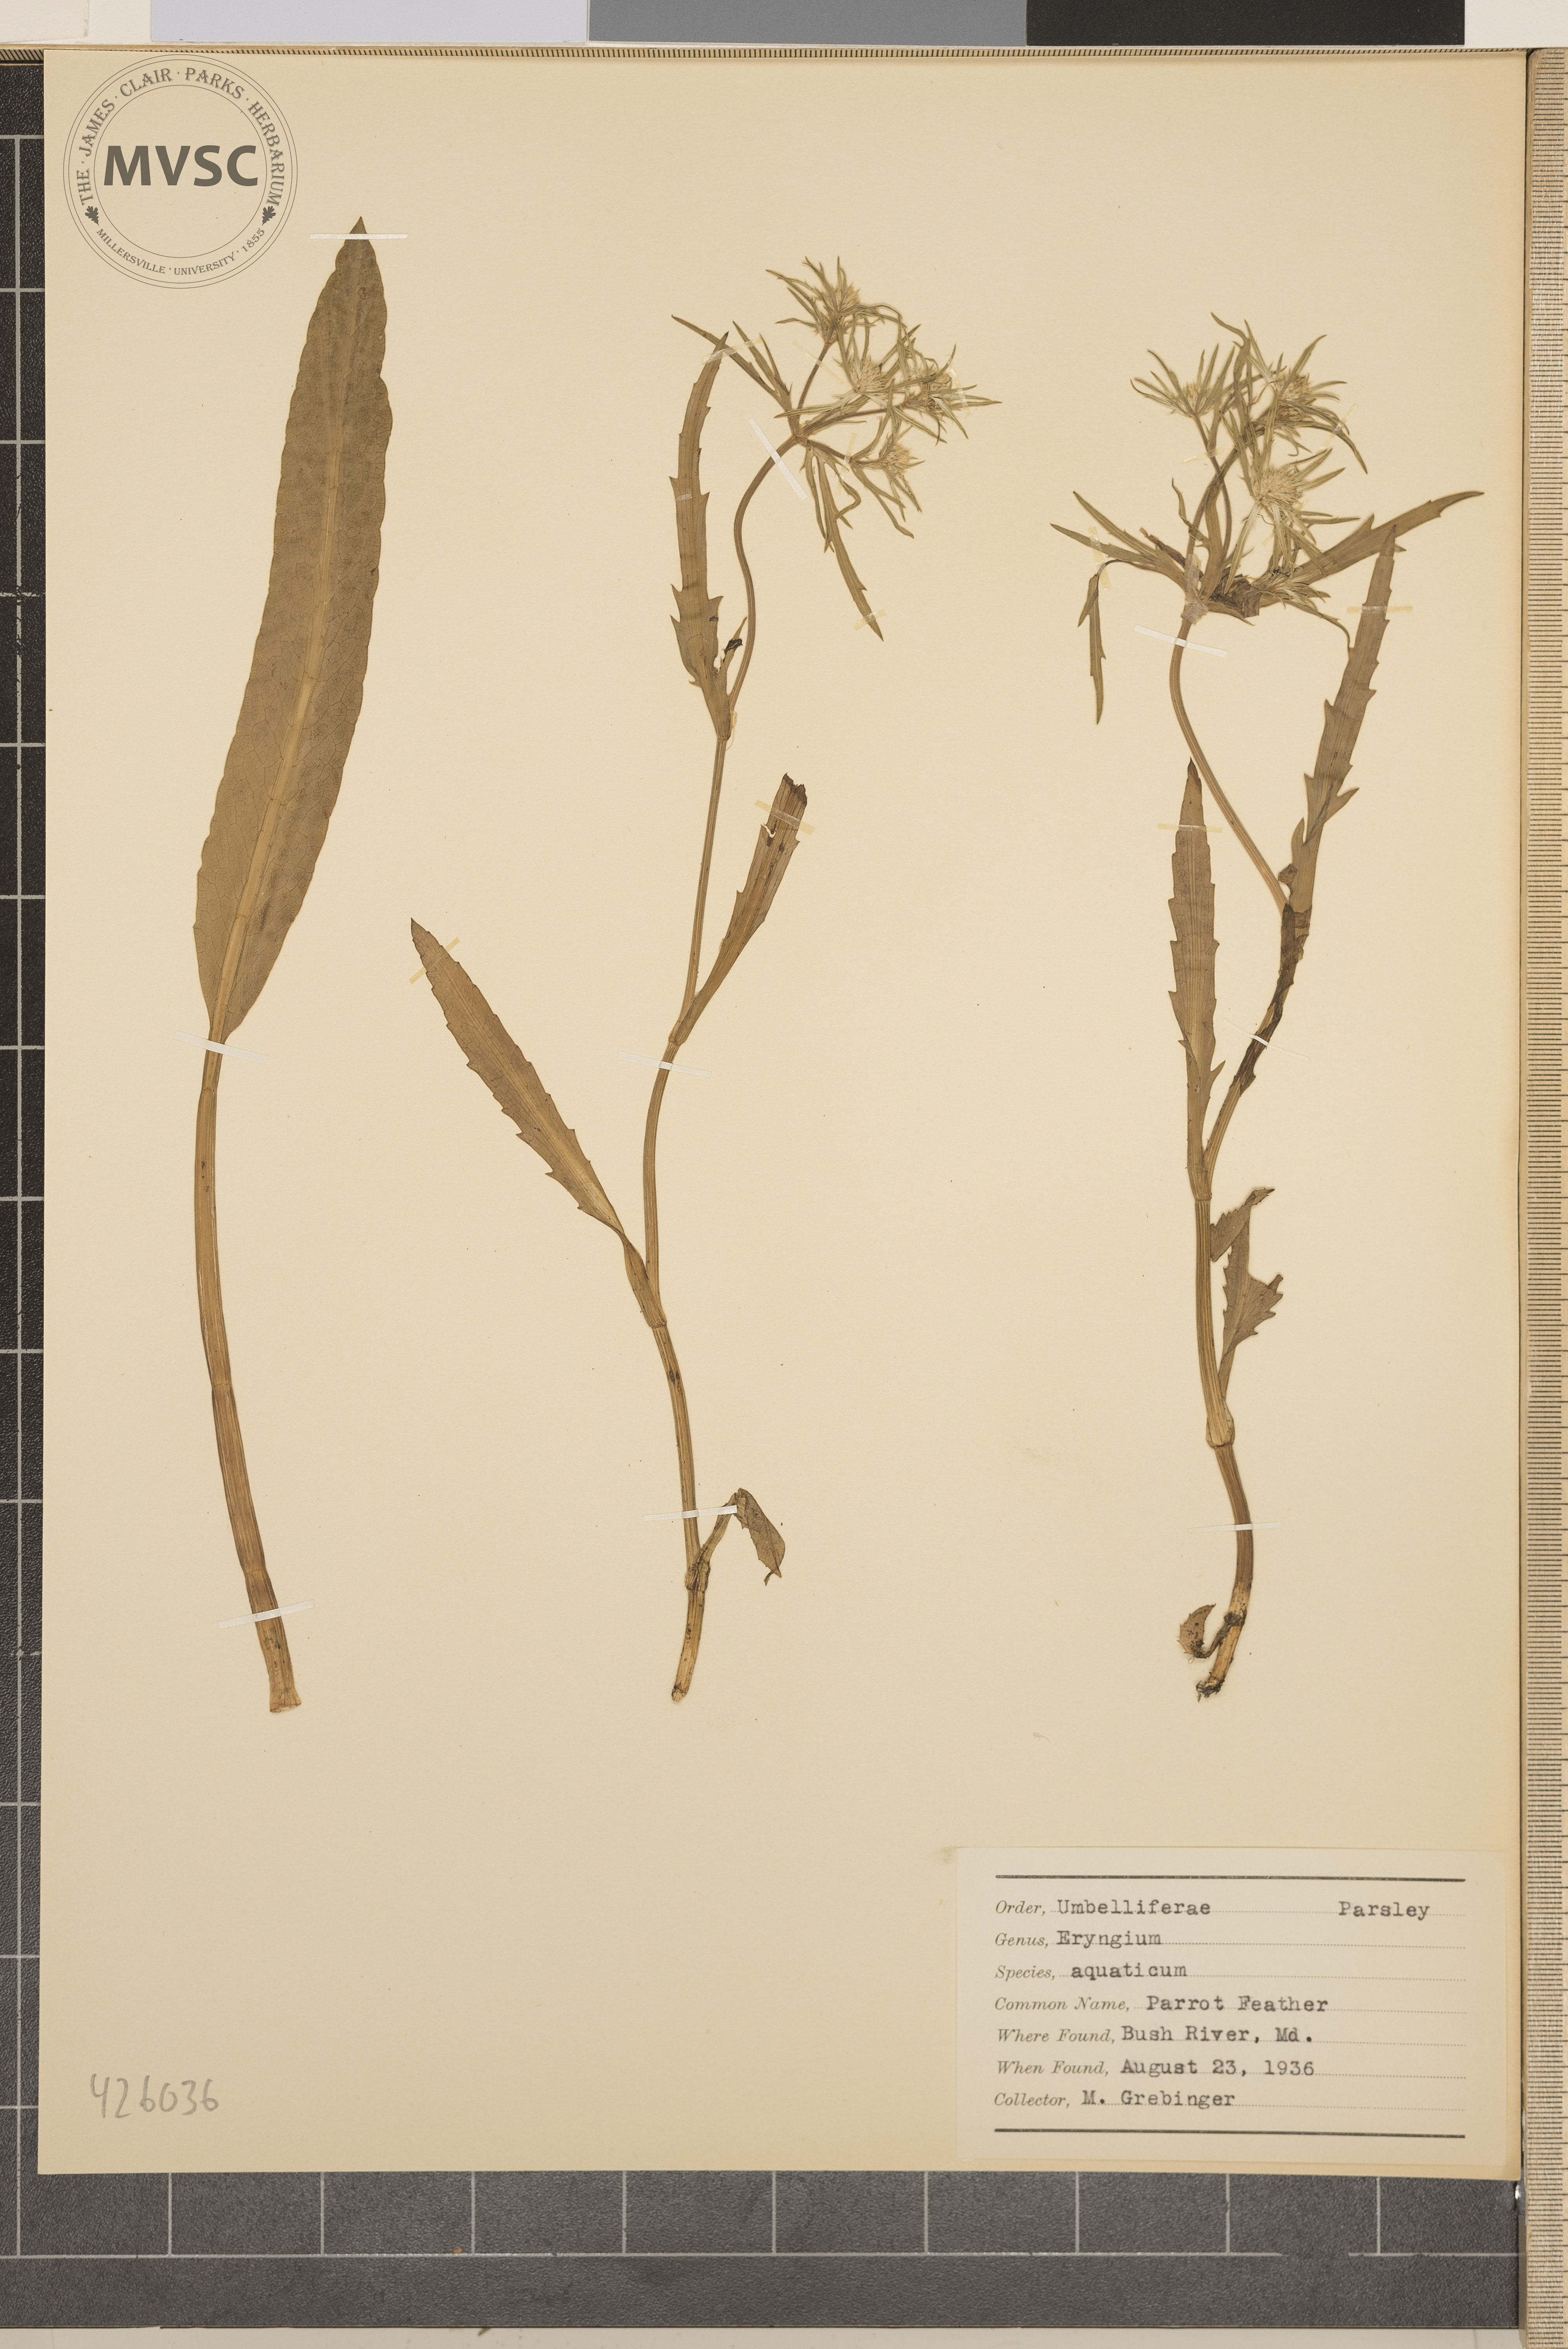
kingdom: Plantae
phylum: Tracheophyta
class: Magnoliopsida
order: Apiales
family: Apiaceae
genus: Eryngium
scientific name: Eryngium aquaticum
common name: Parrot feather
